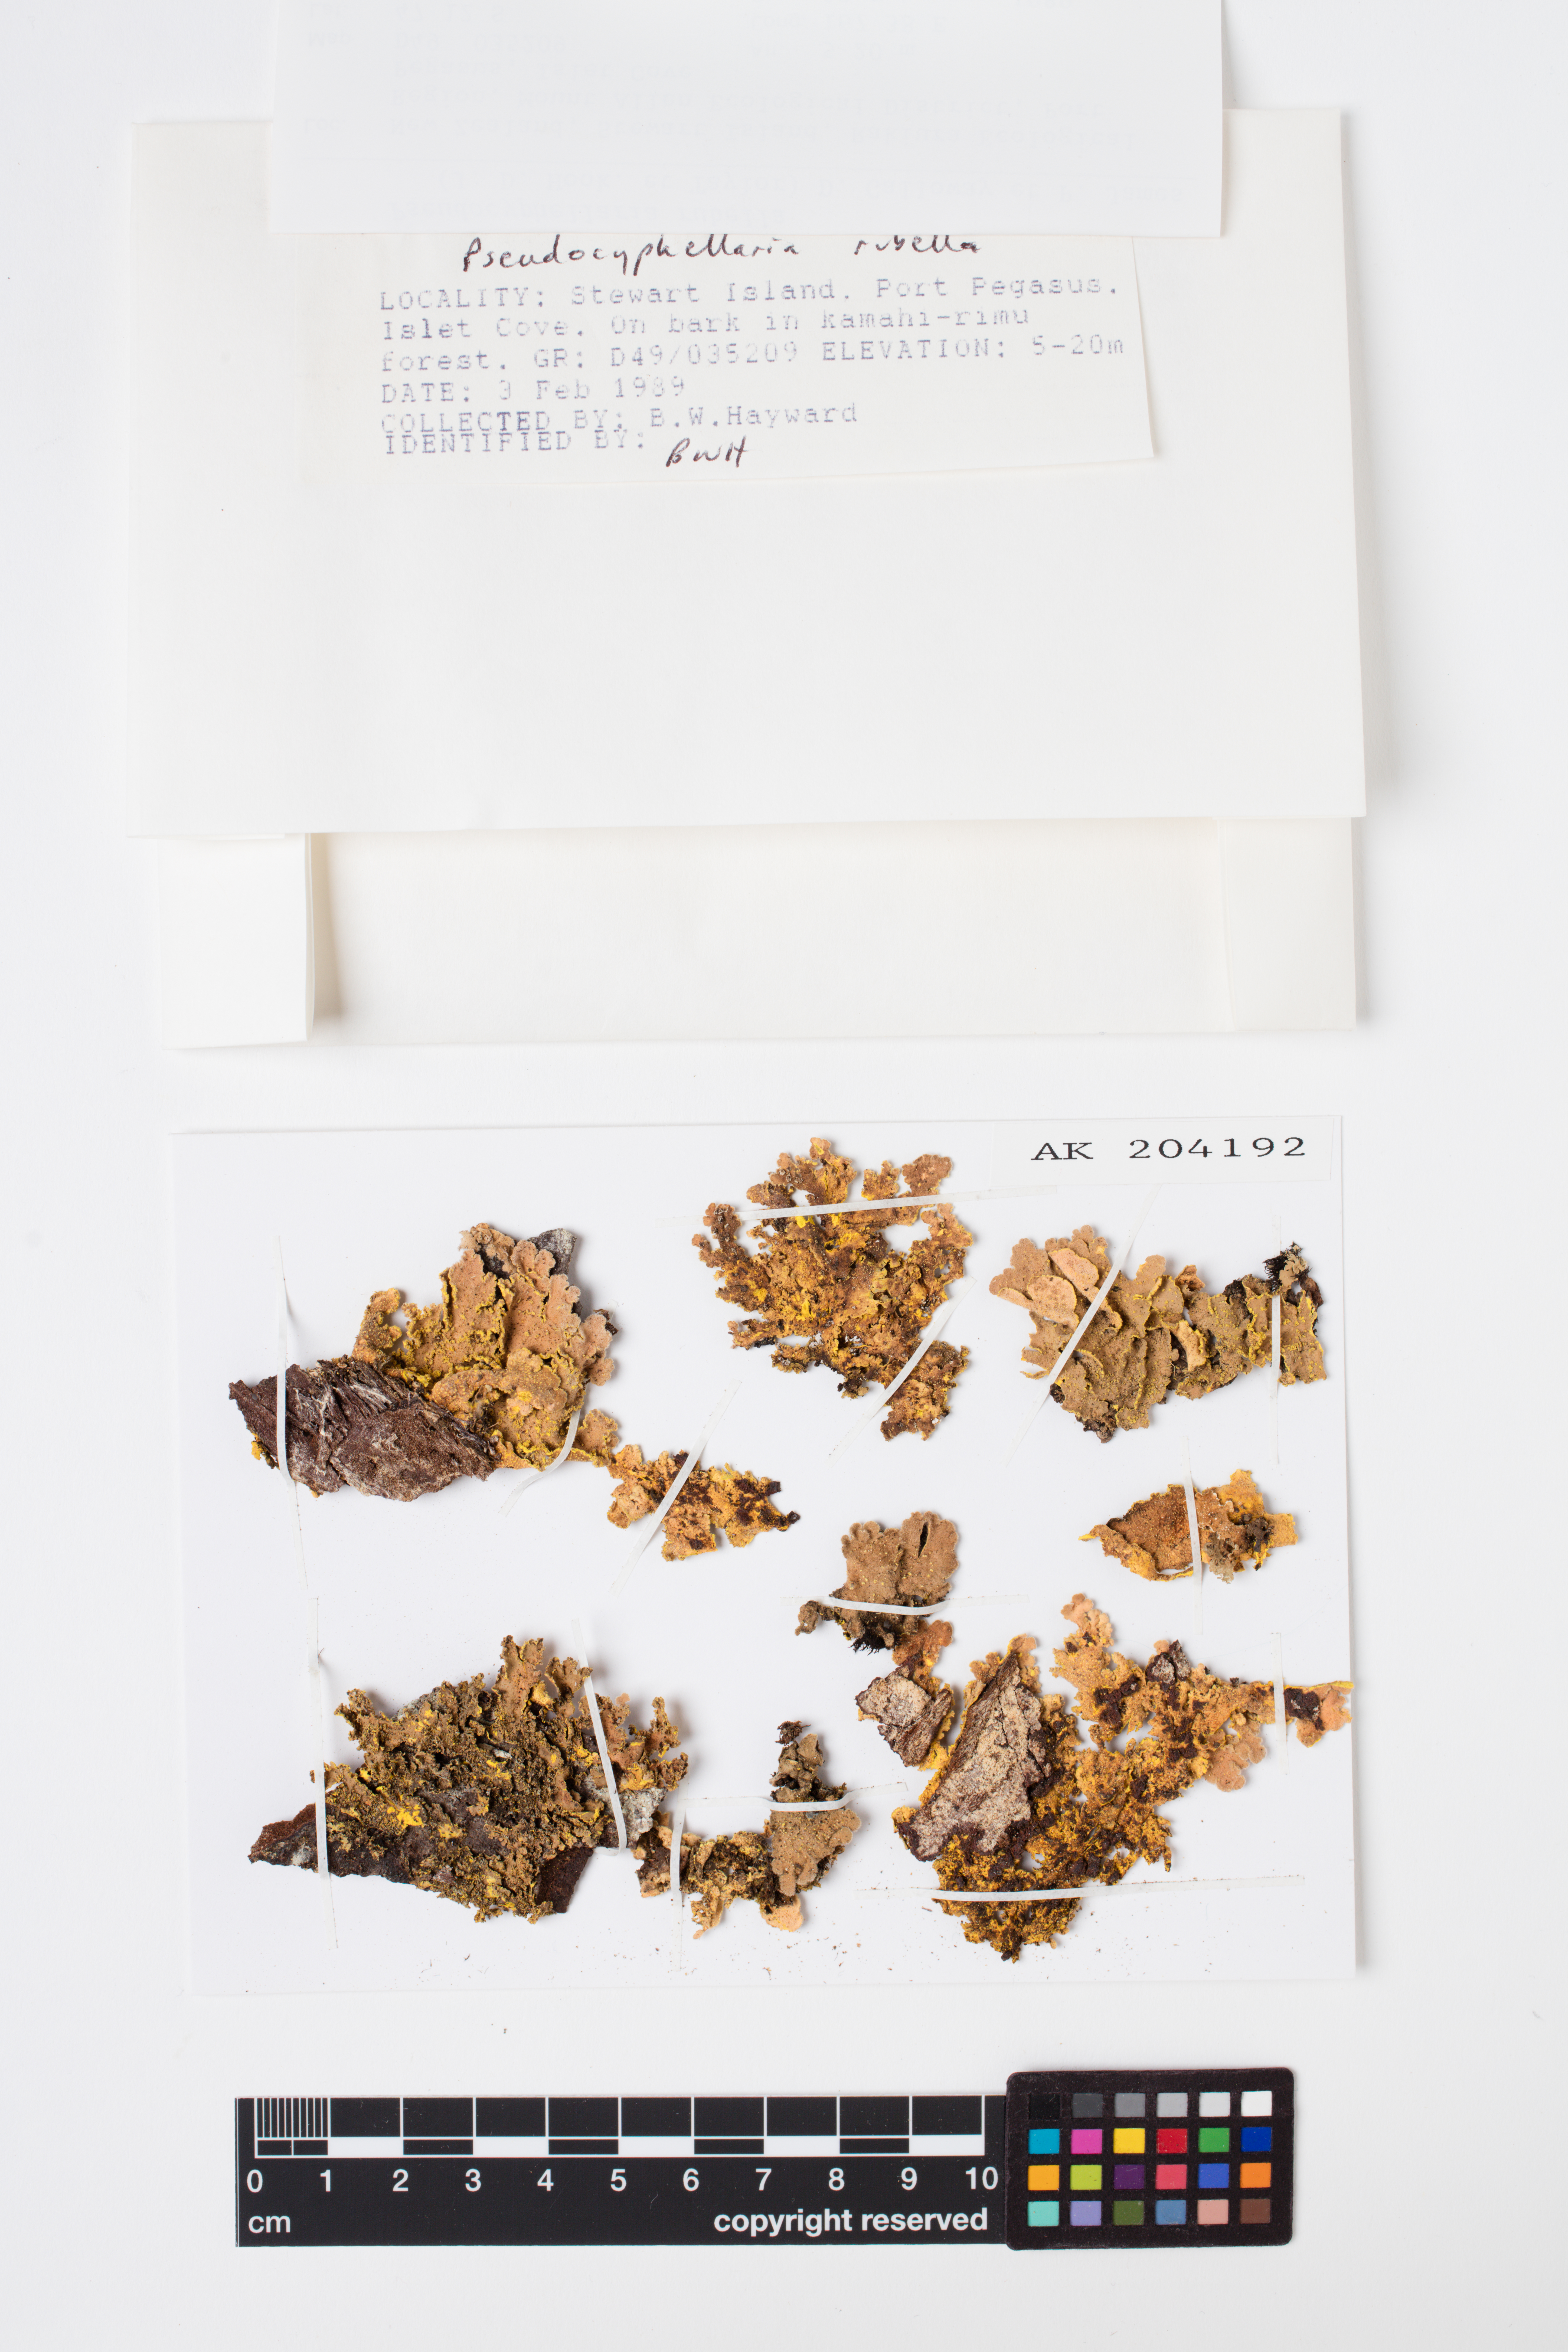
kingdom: Fungi
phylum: Ascomycota
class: Lecanoromycetes
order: Peltigerales
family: Lobariaceae
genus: Pseudocyphellaria
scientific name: Pseudocyphellaria rubella
